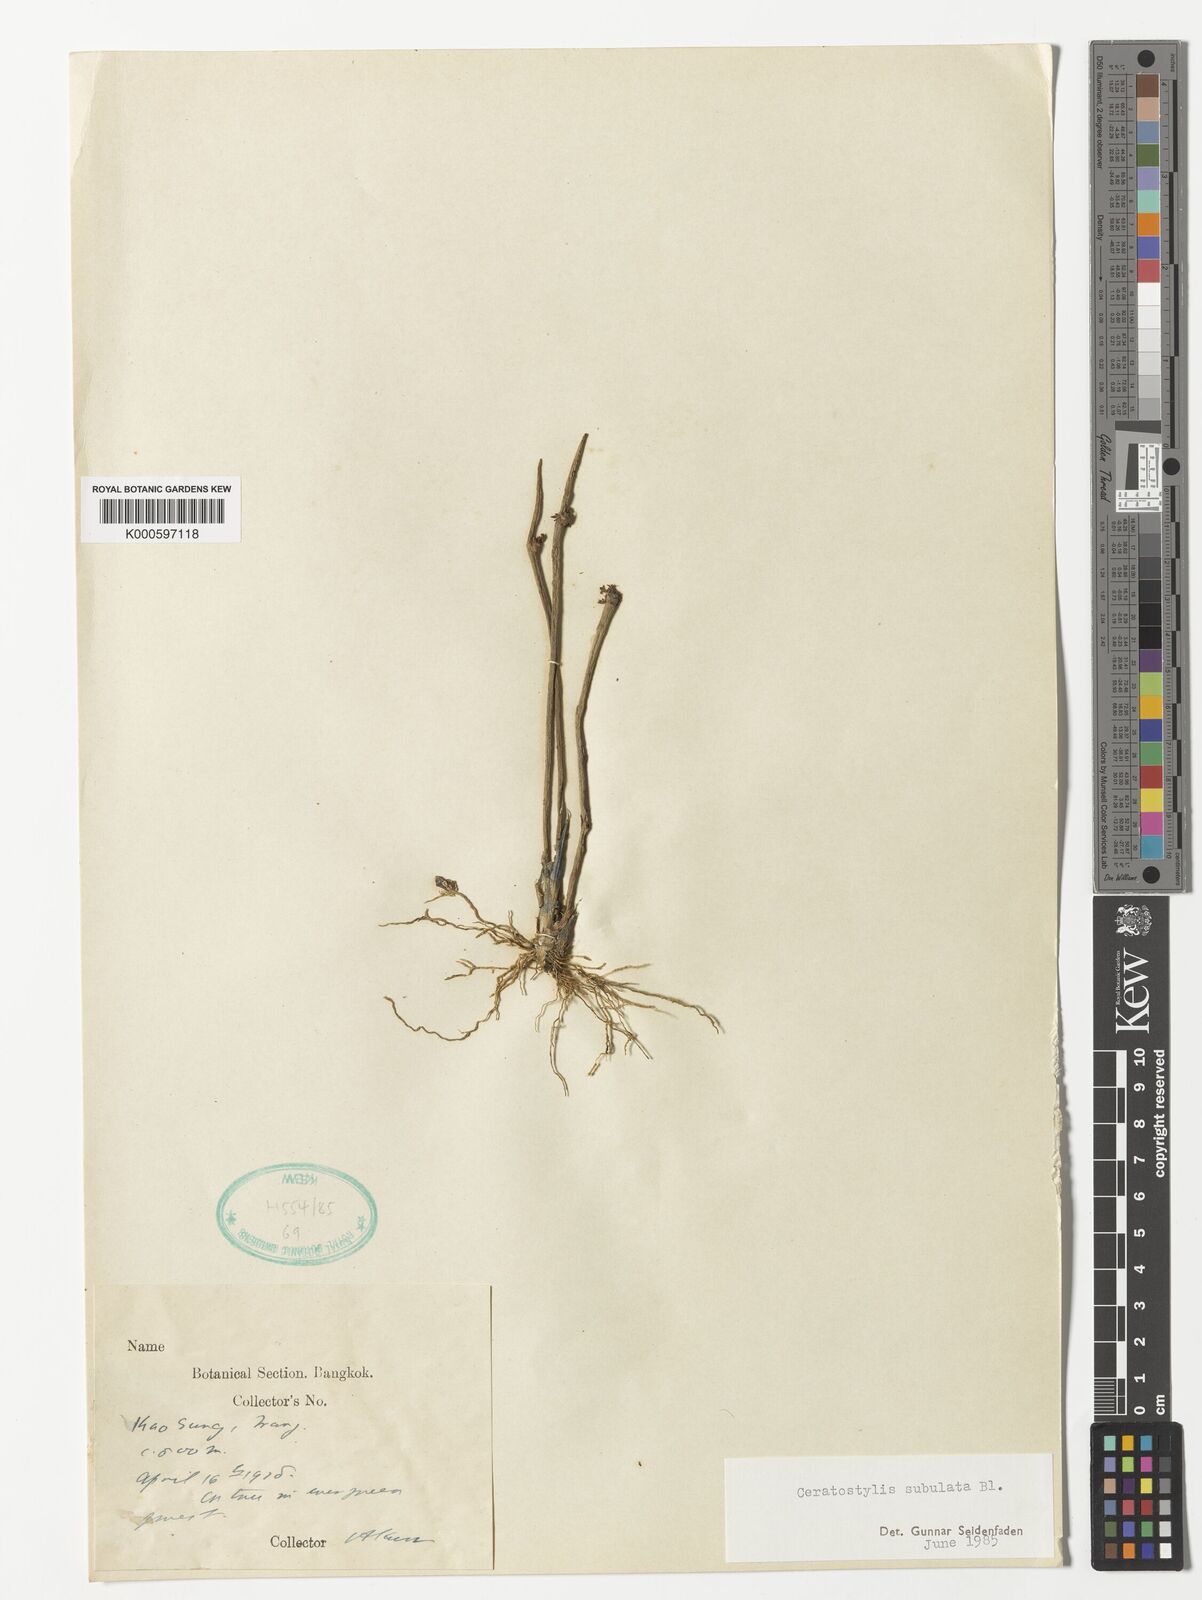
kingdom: Plantae
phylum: Tracheophyta
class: Liliopsida
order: Asparagales
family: Orchidaceae
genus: Ceratostylis
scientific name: Ceratostylis subulata
